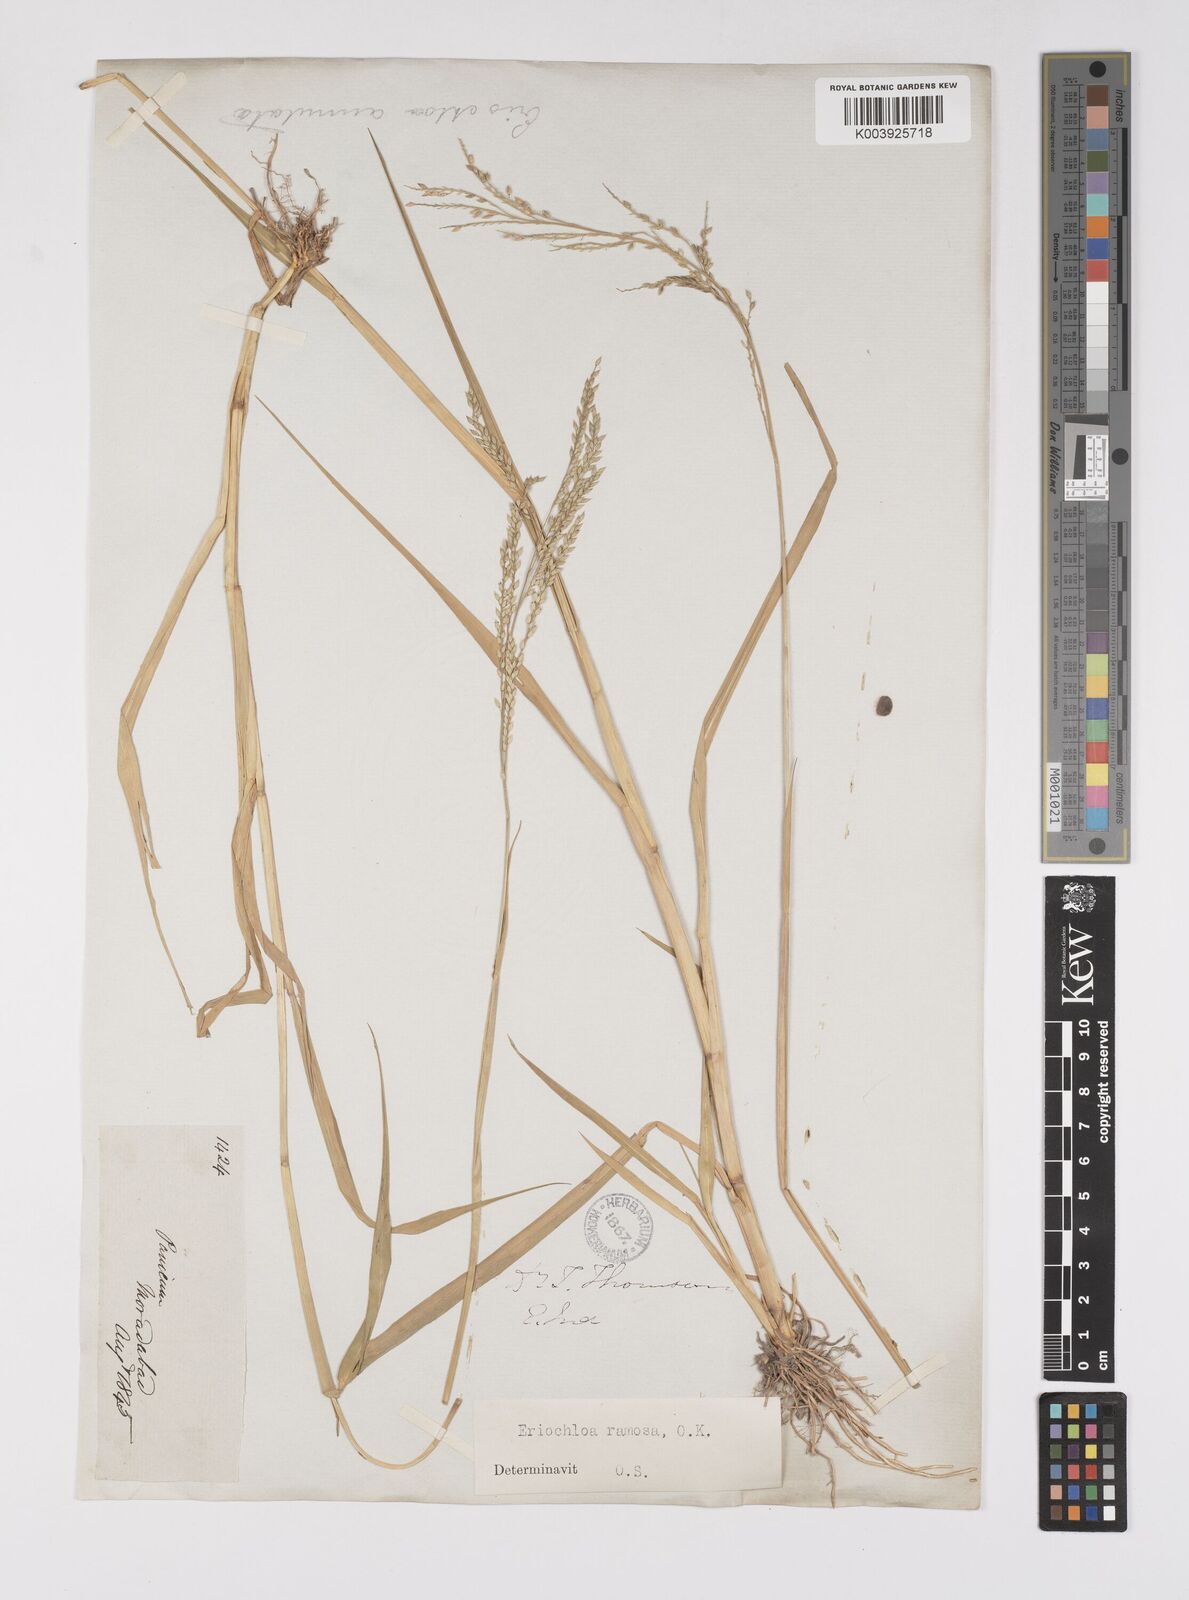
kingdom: Plantae
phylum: Tracheophyta
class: Liliopsida
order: Poales
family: Poaceae
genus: Eriochloa
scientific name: Eriochloa procera
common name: Spring grass
